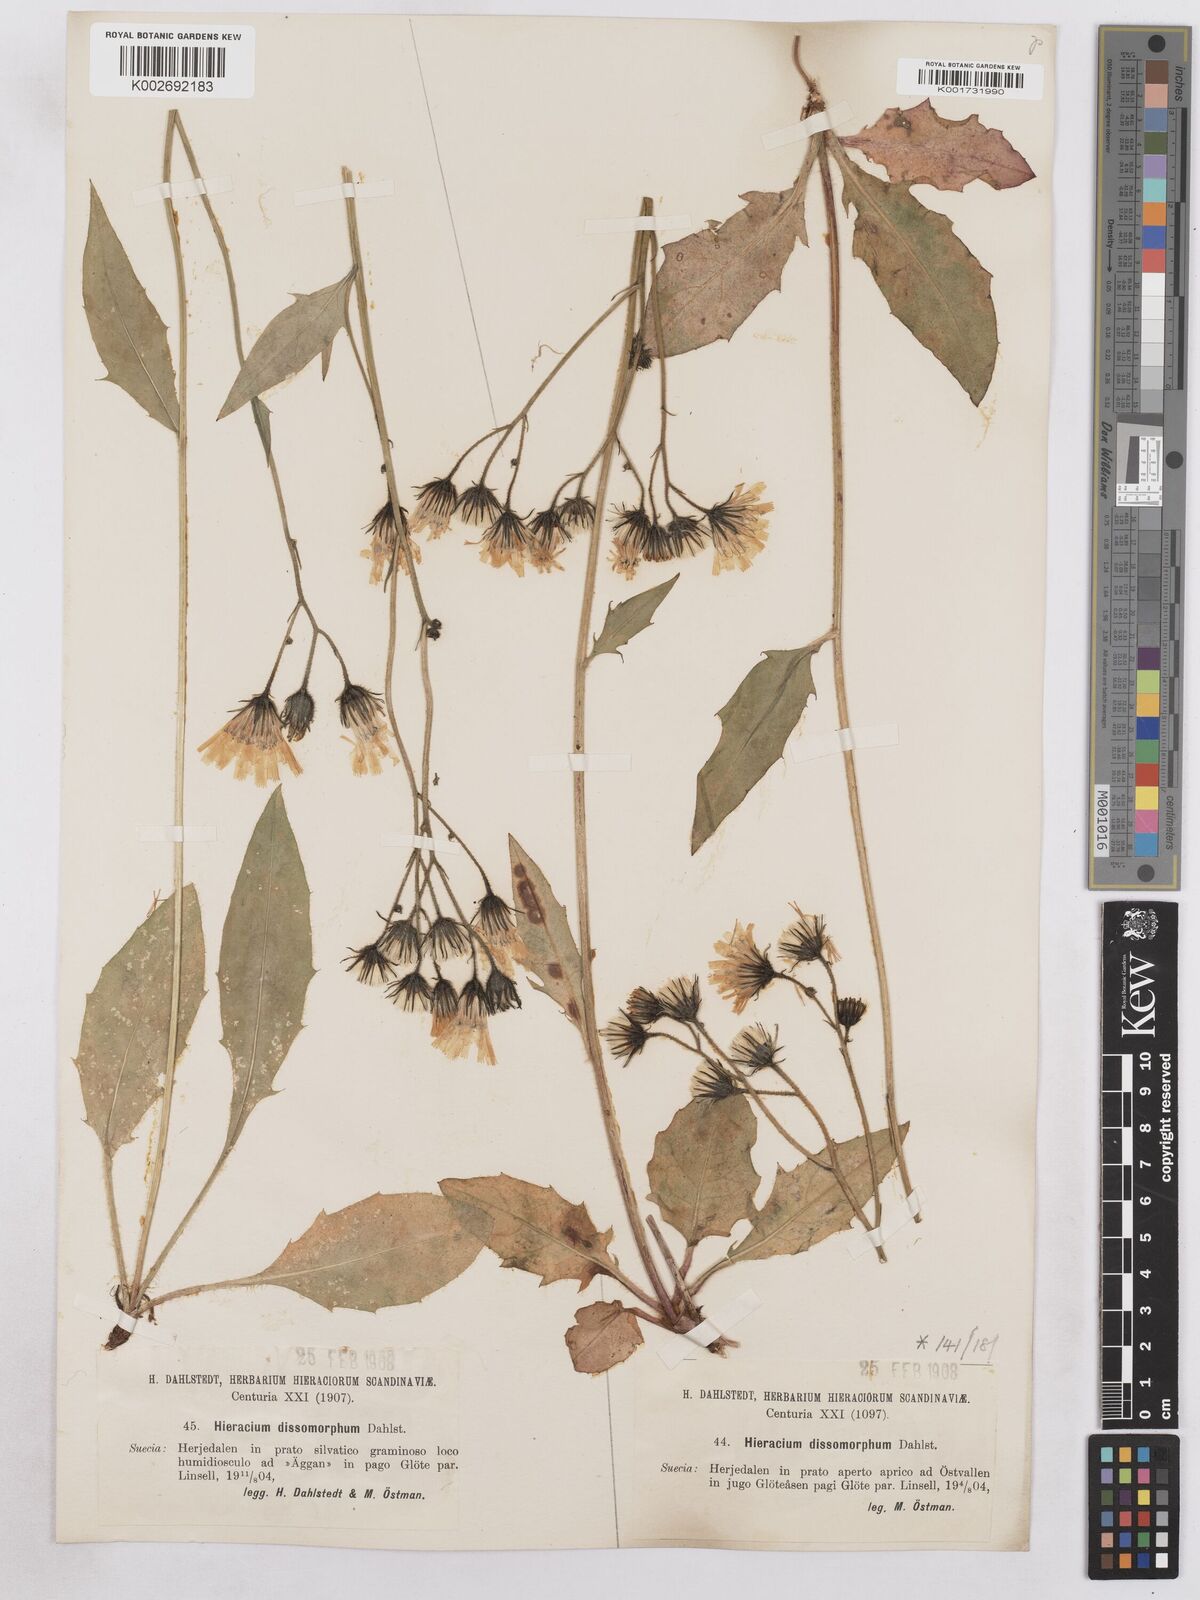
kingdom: Plantae
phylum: Tracheophyta
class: Magnoliopsida
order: Asterales
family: Asteraceae
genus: Hieracium
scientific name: Hieracium diaphanoides
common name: Fine-bracted hawkweed
